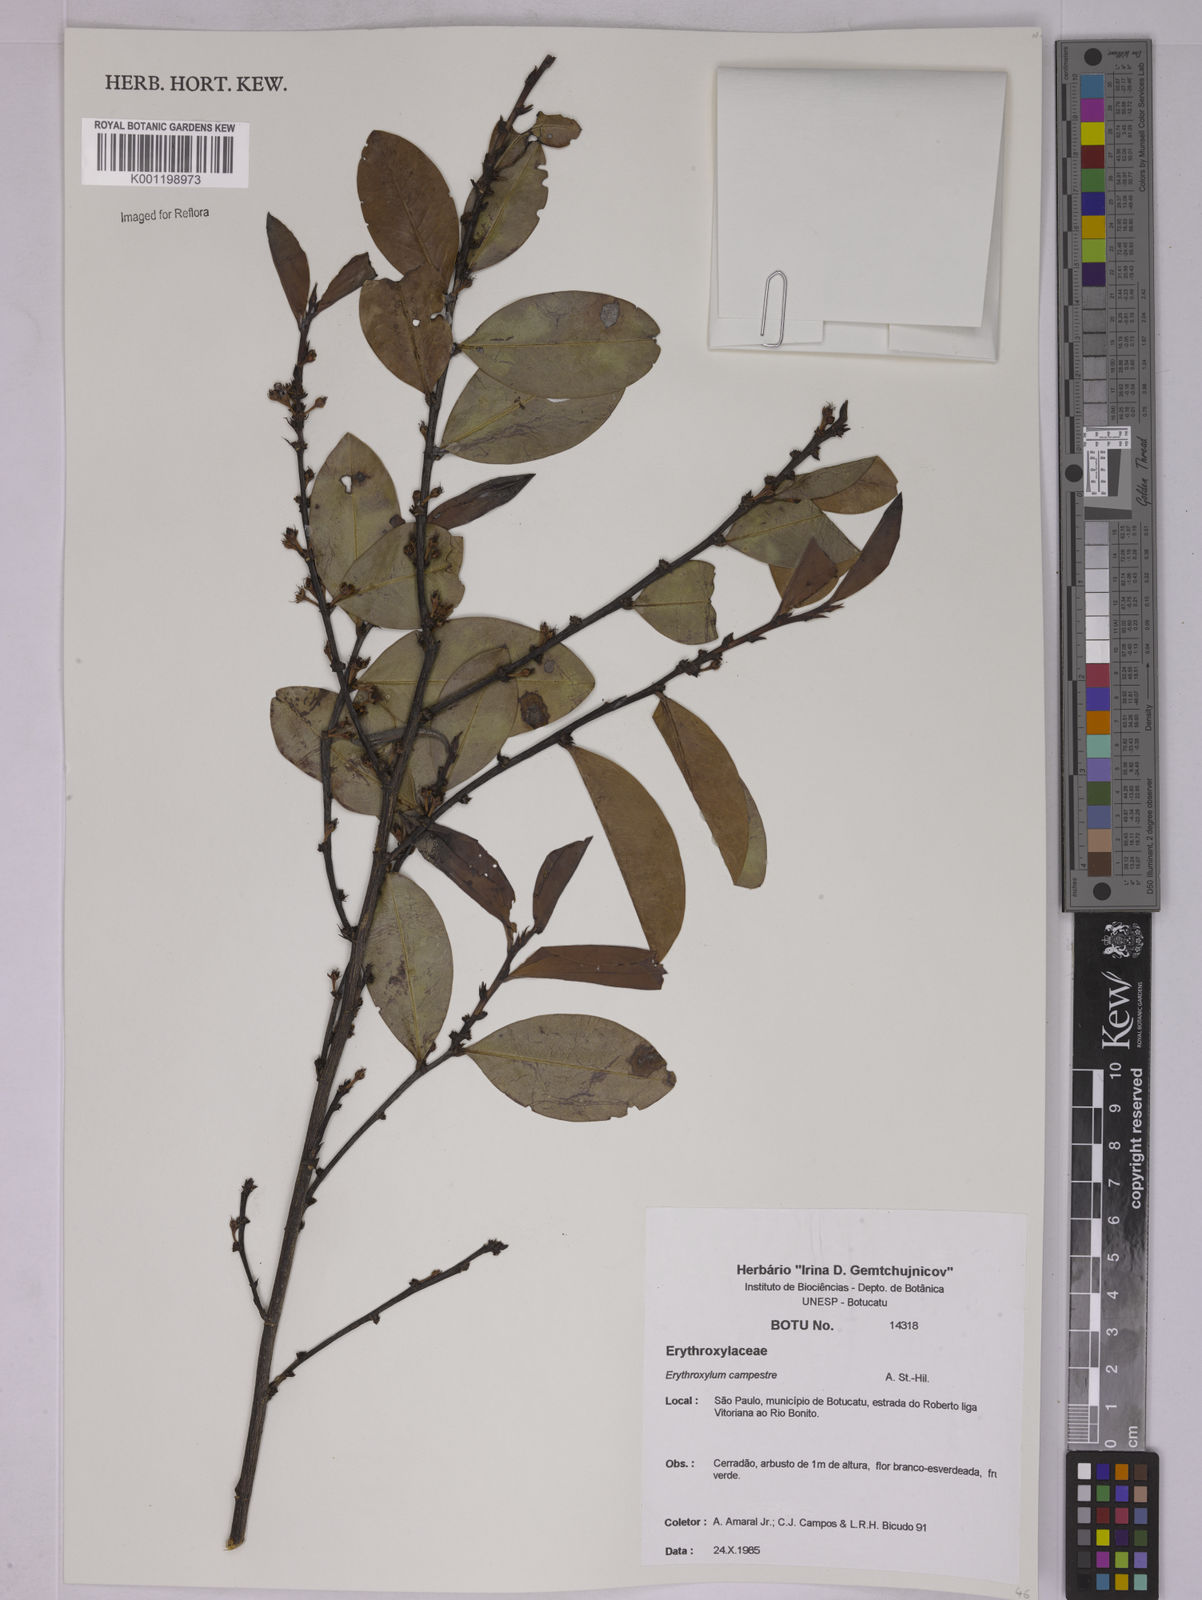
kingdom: Plantae
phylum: Tracheophyta
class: Magnoliopsida
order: Malpighiales
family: Erythroxylaceae
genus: Erythroxylum
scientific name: Erythroxylum campestre
